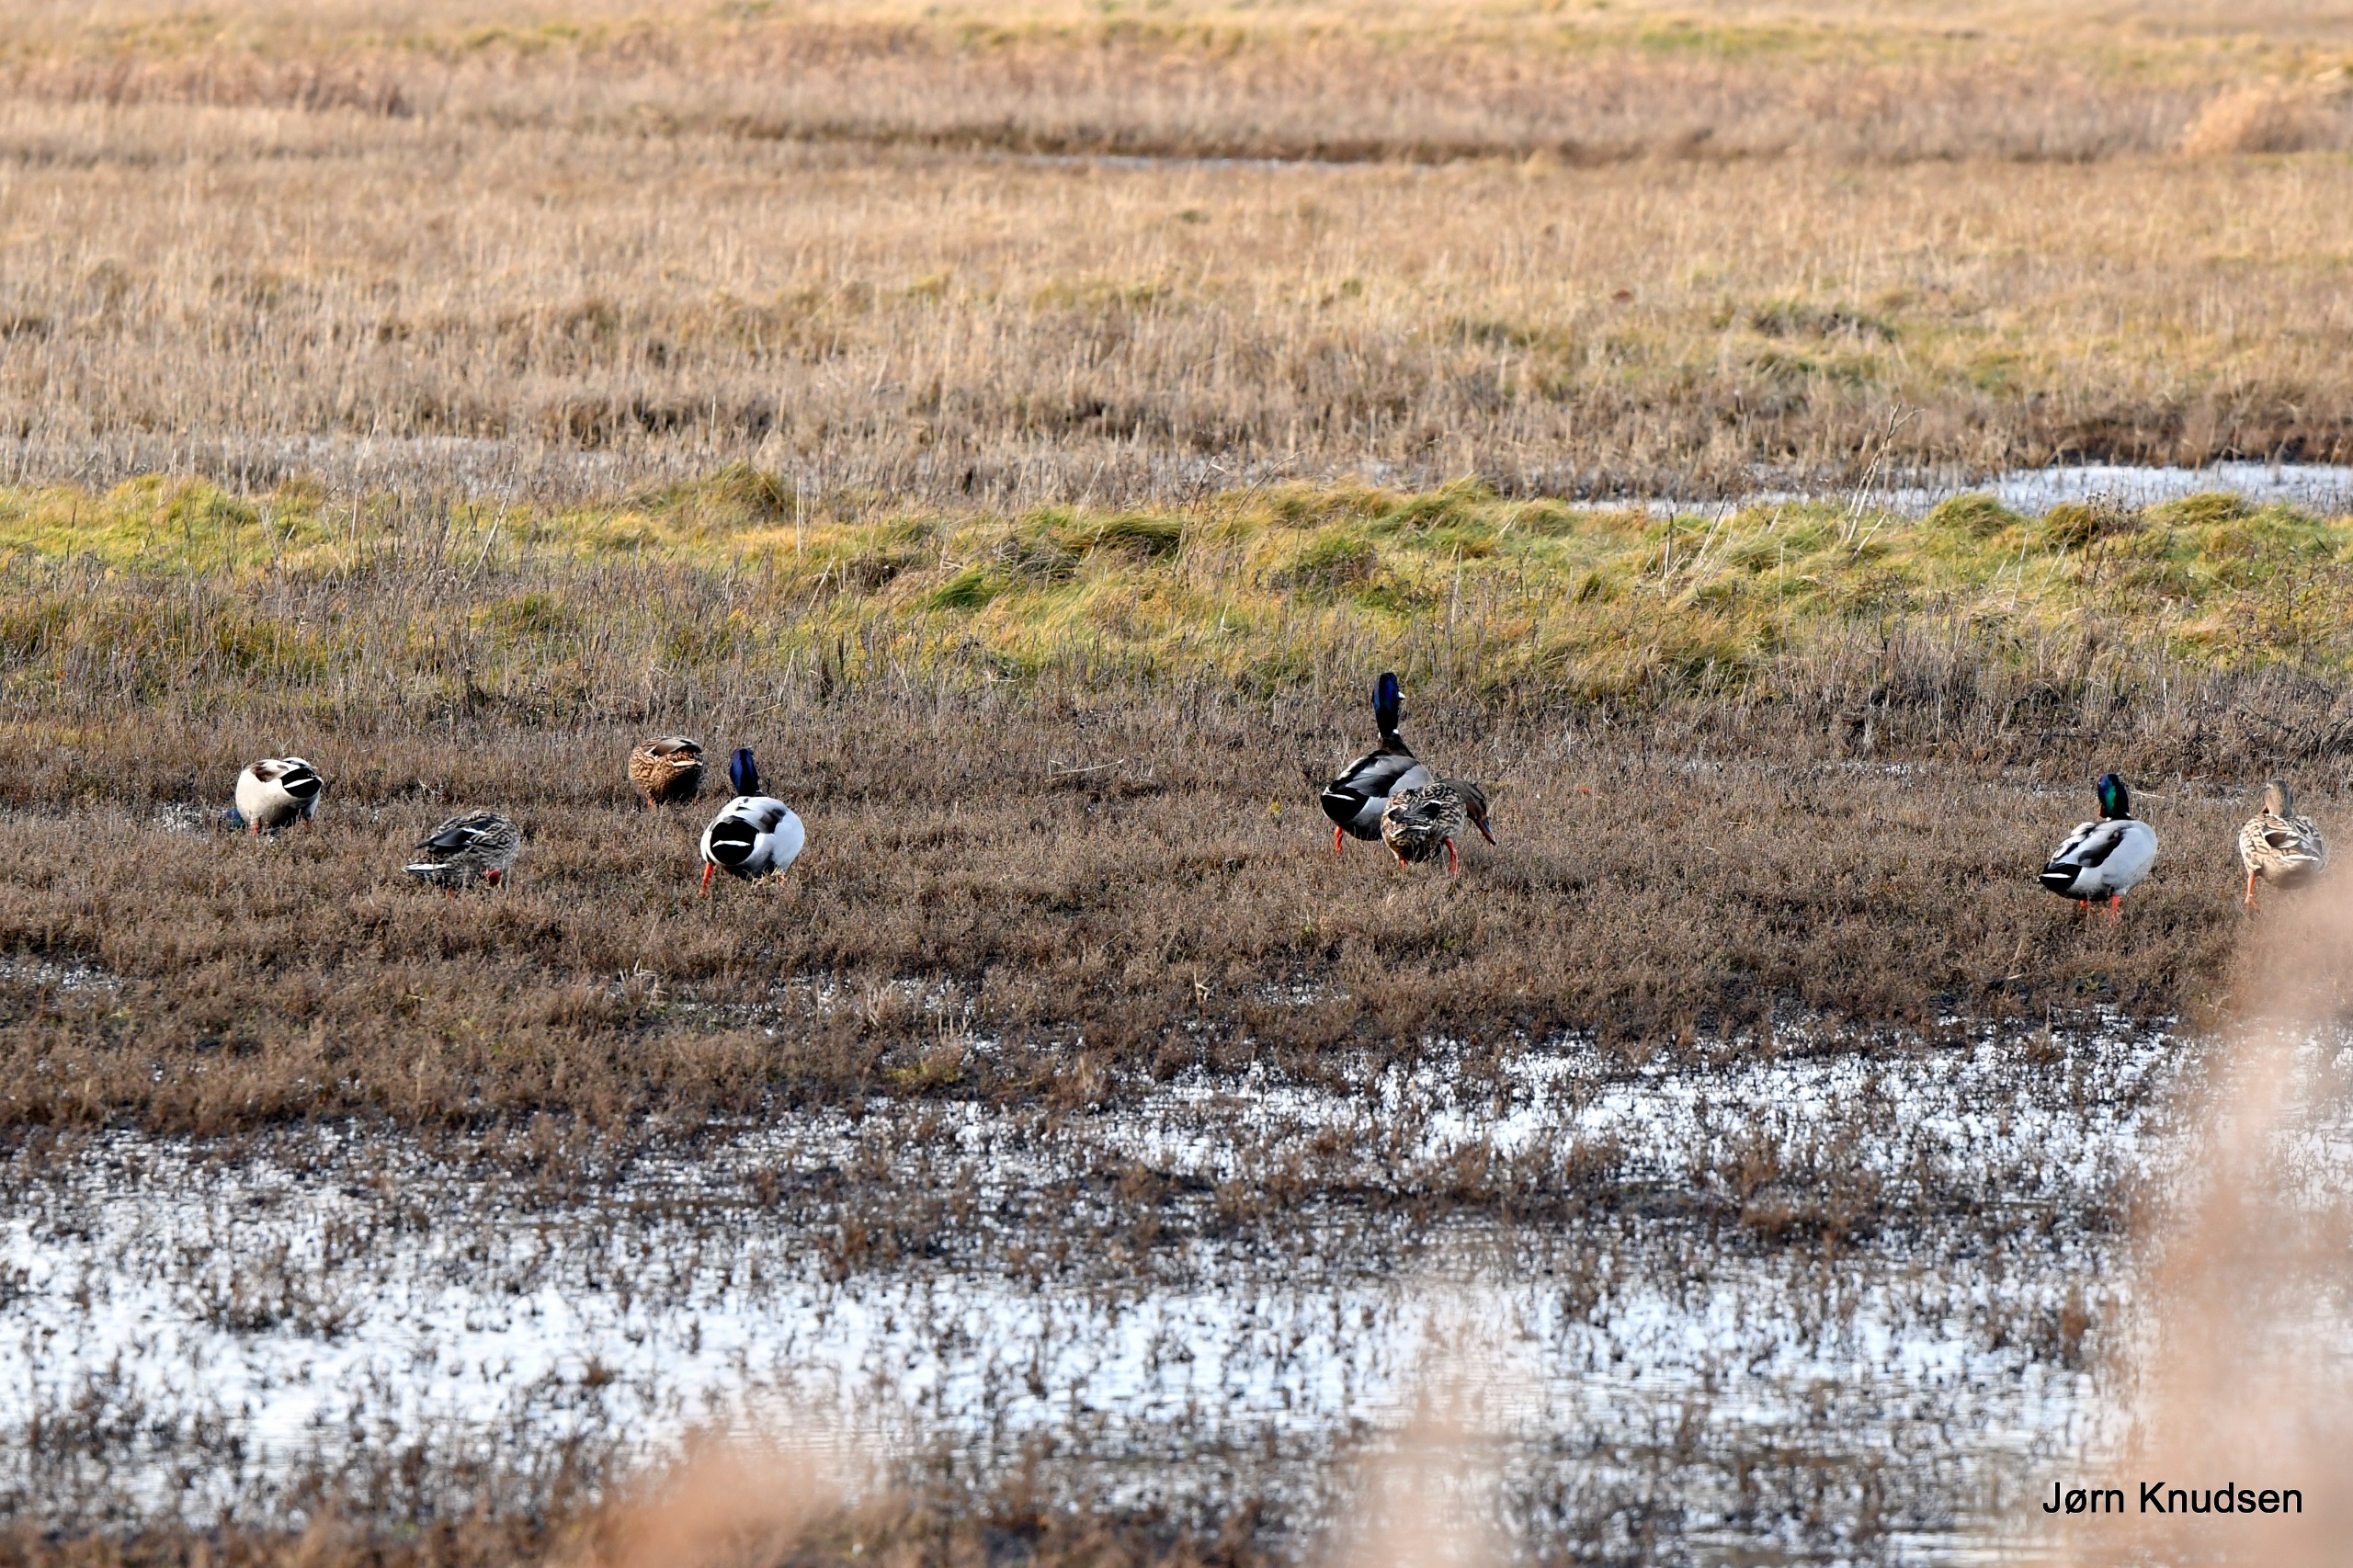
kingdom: Animalia
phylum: Chordata
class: Aves
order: Anseriformes
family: Anatidae
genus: Anas
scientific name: Anas platyrhynchos
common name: Gråand
